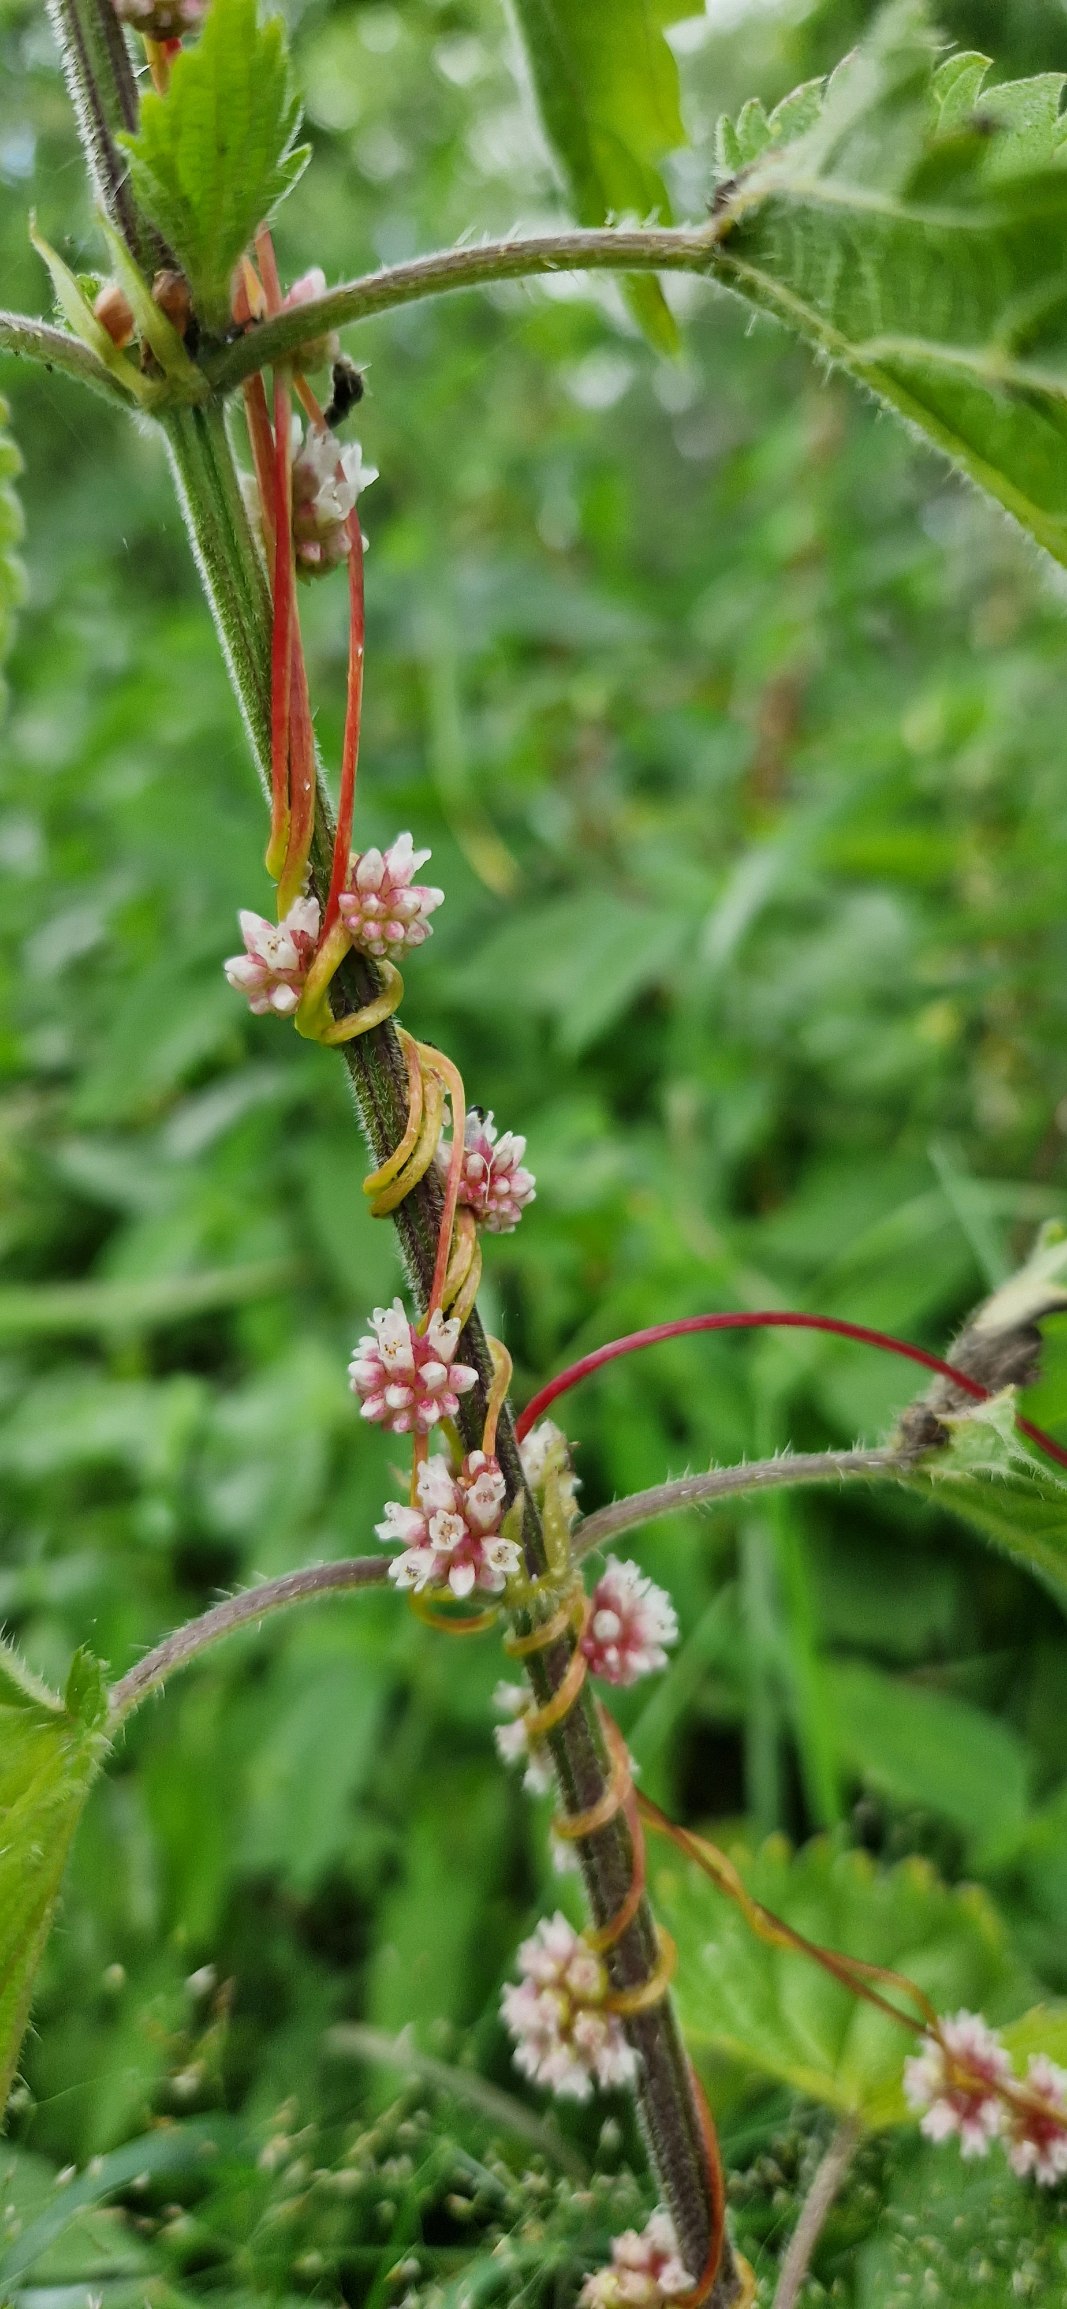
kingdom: Plantae
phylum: Tracheophyta
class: Magnoliopsida
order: Solanales
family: Convolvulaceae
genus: Cuscuta
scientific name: Cuscuta europaea
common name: Nælde-silke
